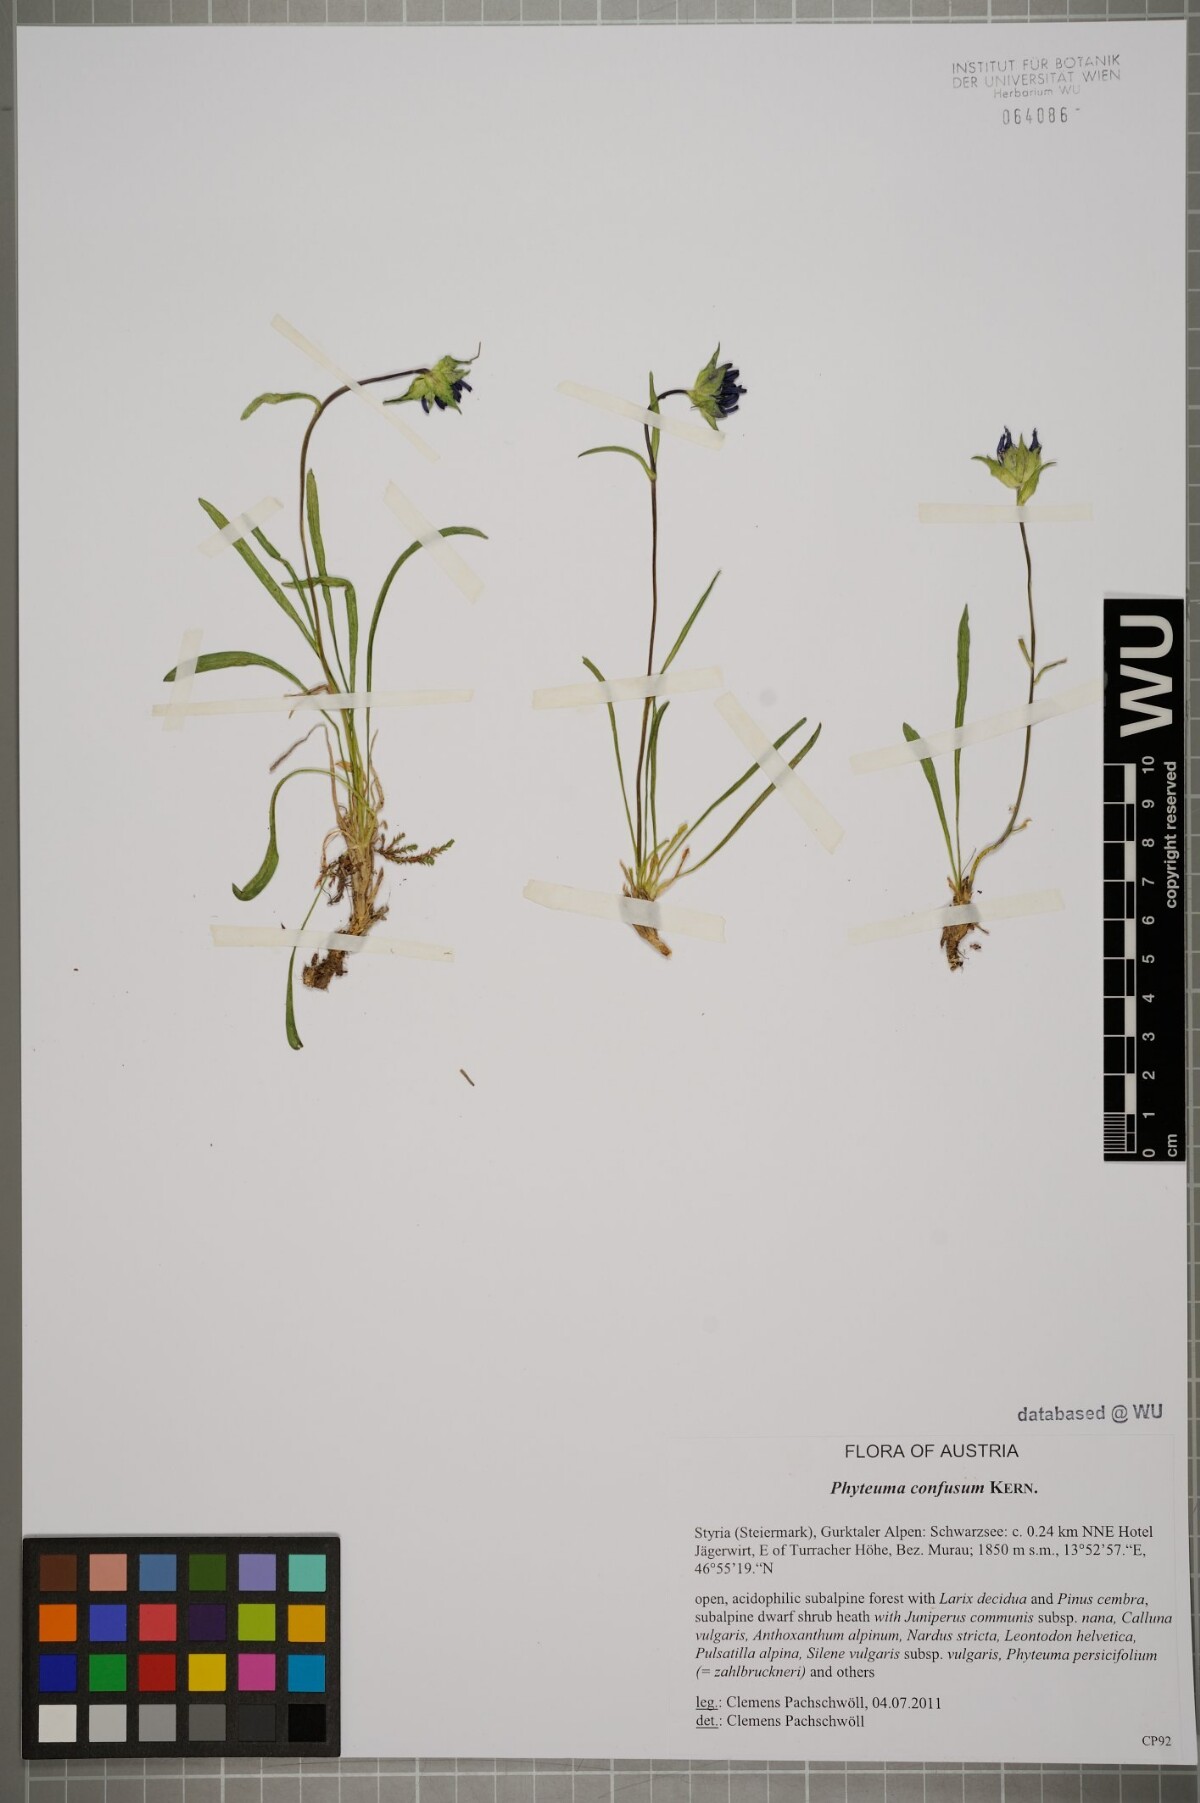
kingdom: Plantae
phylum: Tracheophyta
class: Magnoliopsida
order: Asterales
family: Campanulaceae
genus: Phyteuma
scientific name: Phyteuma confusum
